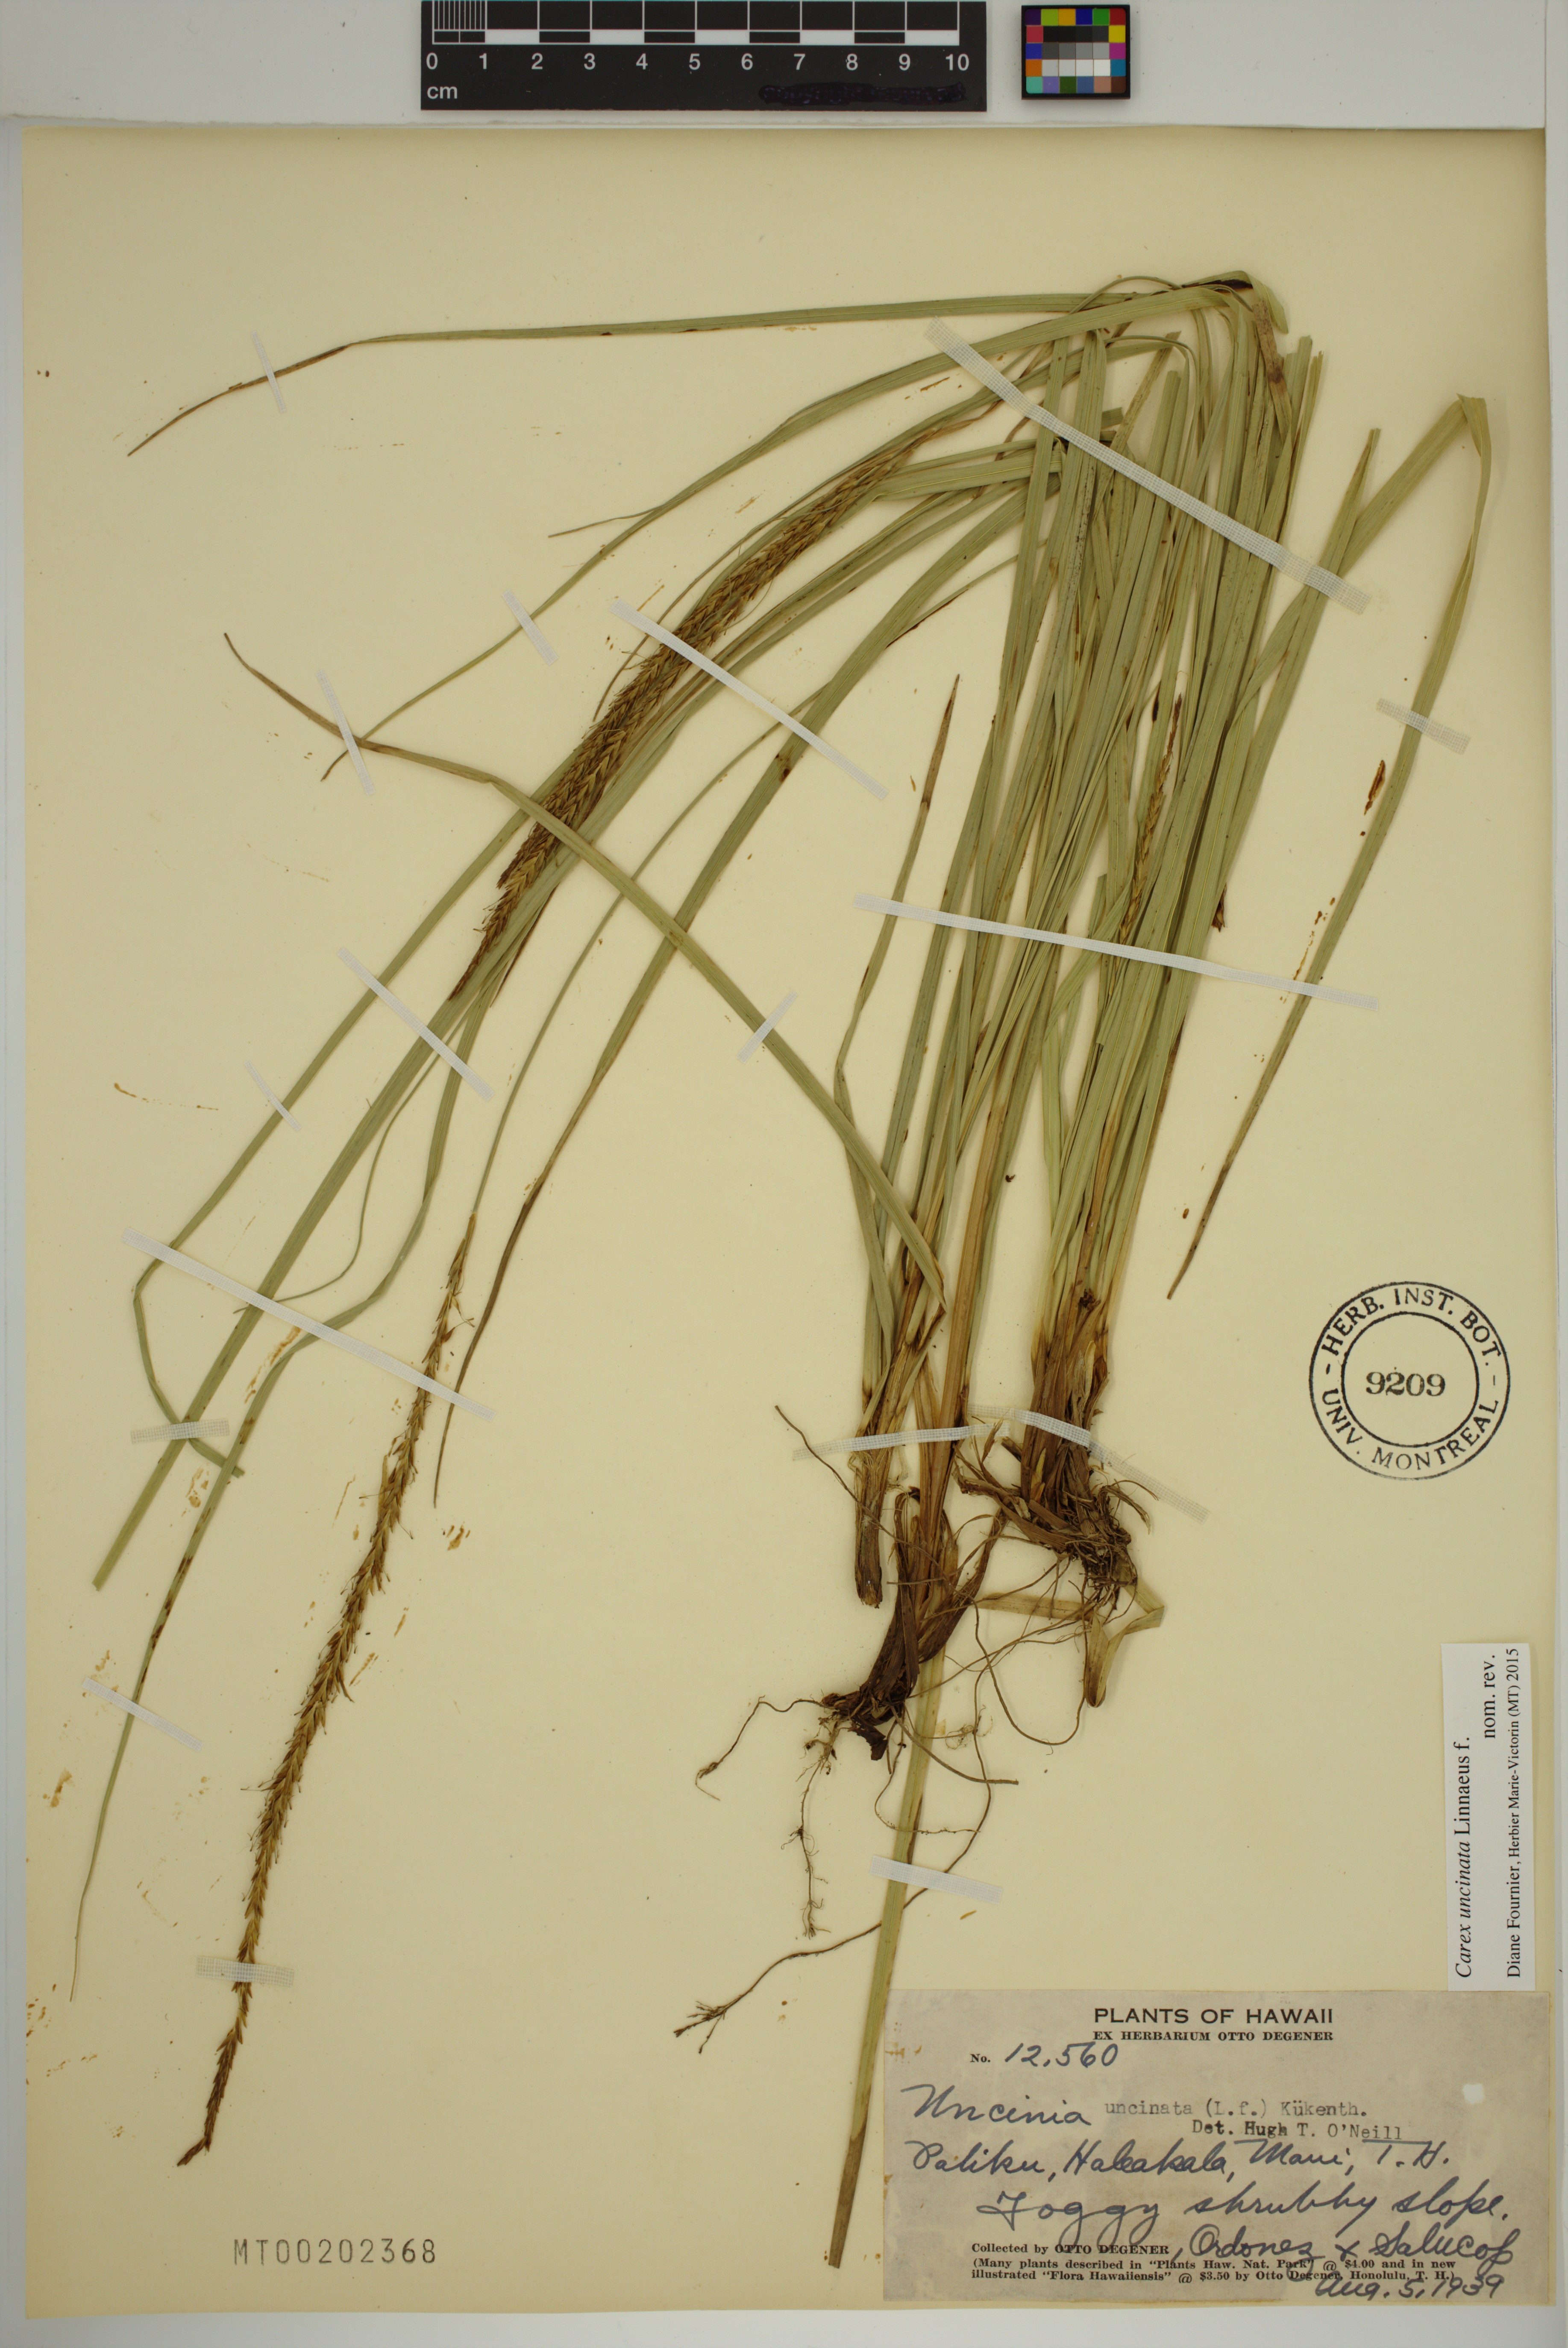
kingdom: Plantae
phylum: Tracheophyta
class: Liliopsida
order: Poales
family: Cyperaceae
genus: Carex
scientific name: Carex uncinata
